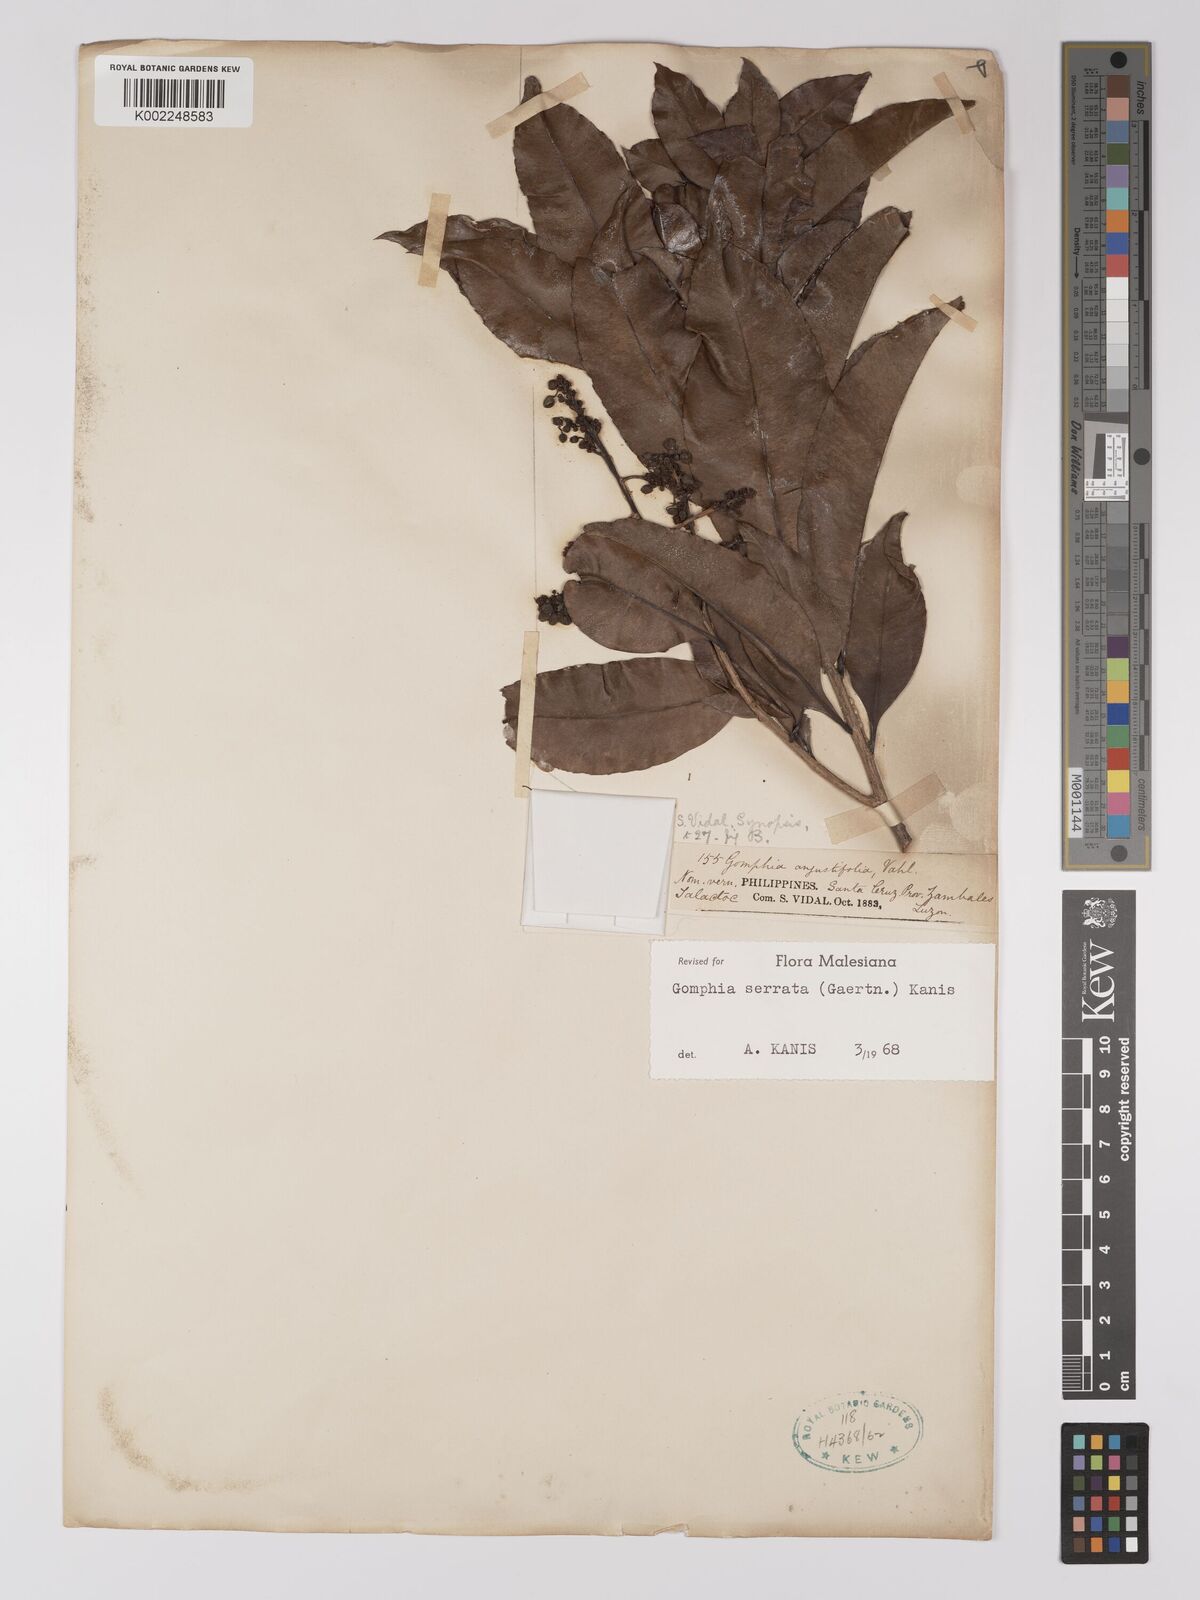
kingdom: Plantae
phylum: Tracheophyta
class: Magnoliopsida
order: Malpighiales
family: Ochnaceae
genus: Gomphia
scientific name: Gomphia serrata
